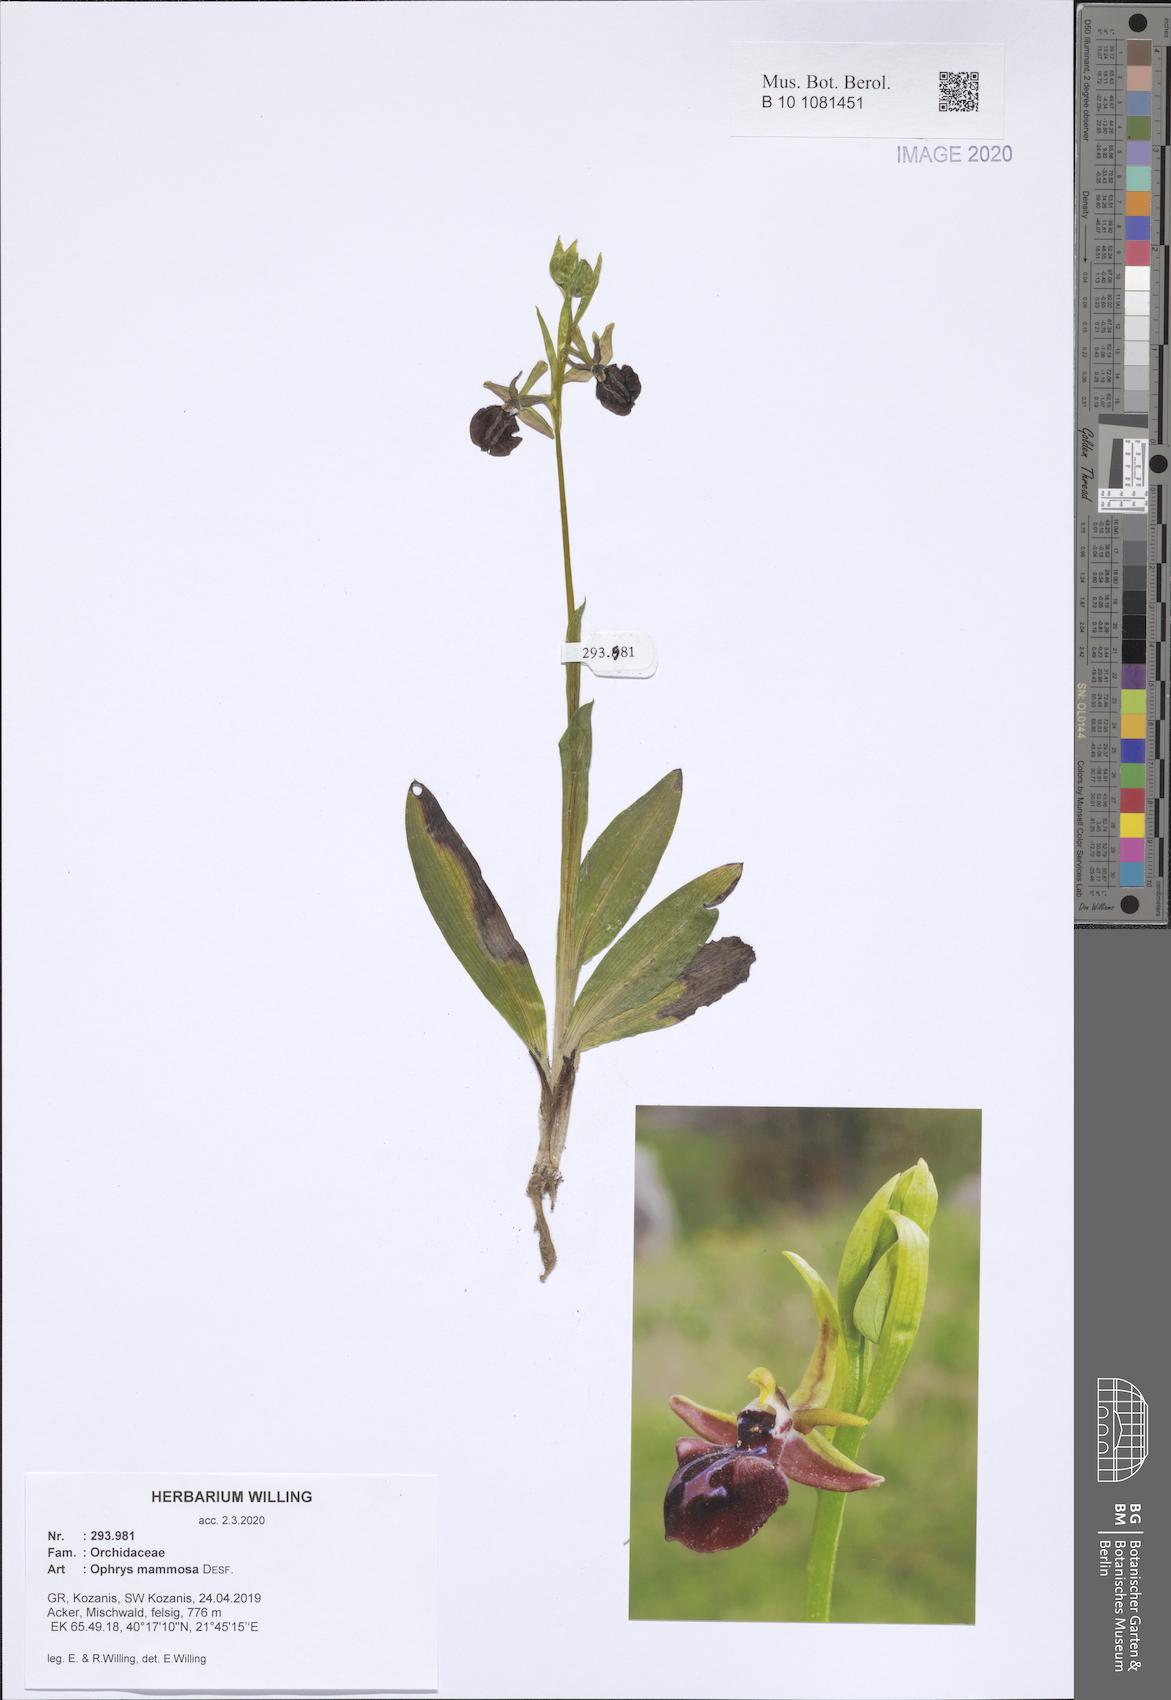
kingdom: Plantae
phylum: Tracheophyta
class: Liliopsida
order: Asparagales
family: Orchidaceae
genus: Ophrys
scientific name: Ophrys sphegodes
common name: Early spider-orchid
